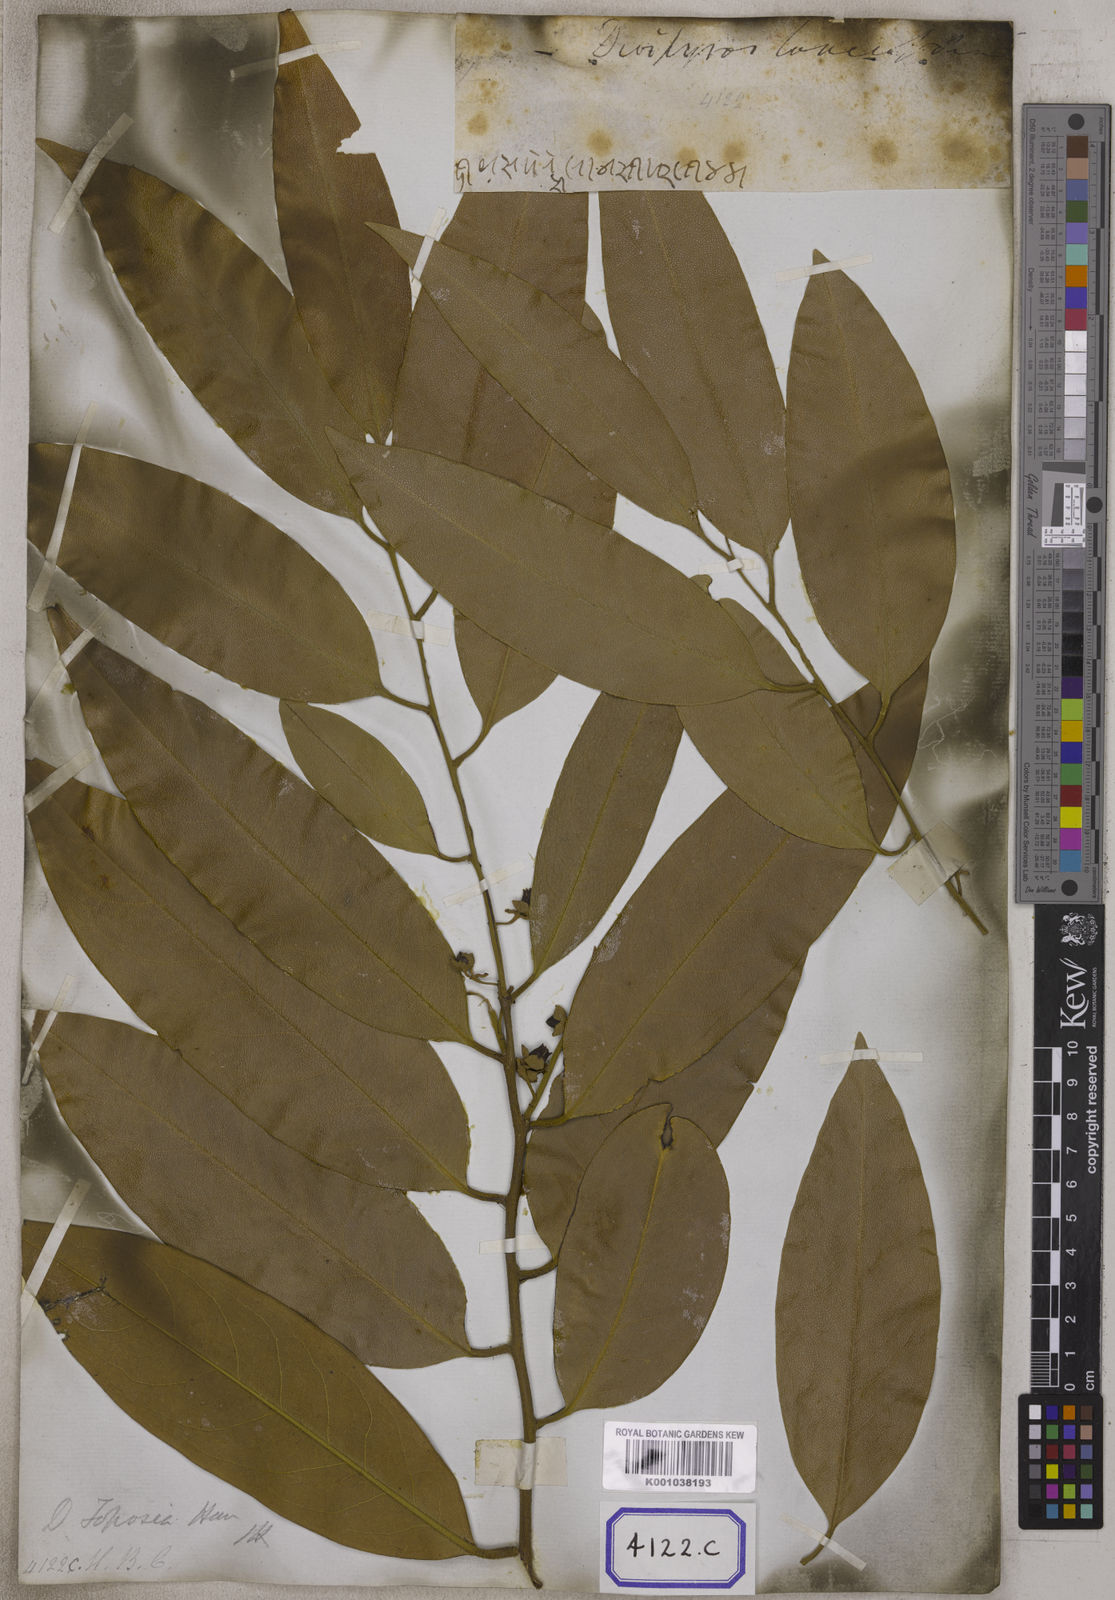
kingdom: Plantae
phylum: Tracheophyta
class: Magnoliopsida
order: Ericales
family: Ebenaceae
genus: Diospyros
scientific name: Diospyros
